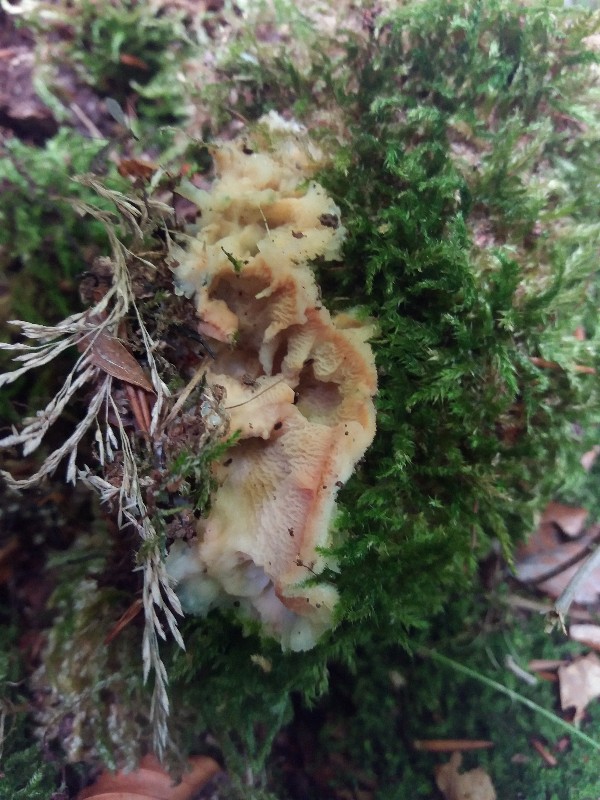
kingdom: Fungi
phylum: Basidiomycota
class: Agaricomycetes
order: Polyporales
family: Meruliaceae
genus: Phlebia
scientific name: Phlebia tremellosa
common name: bævrende åresvamp
